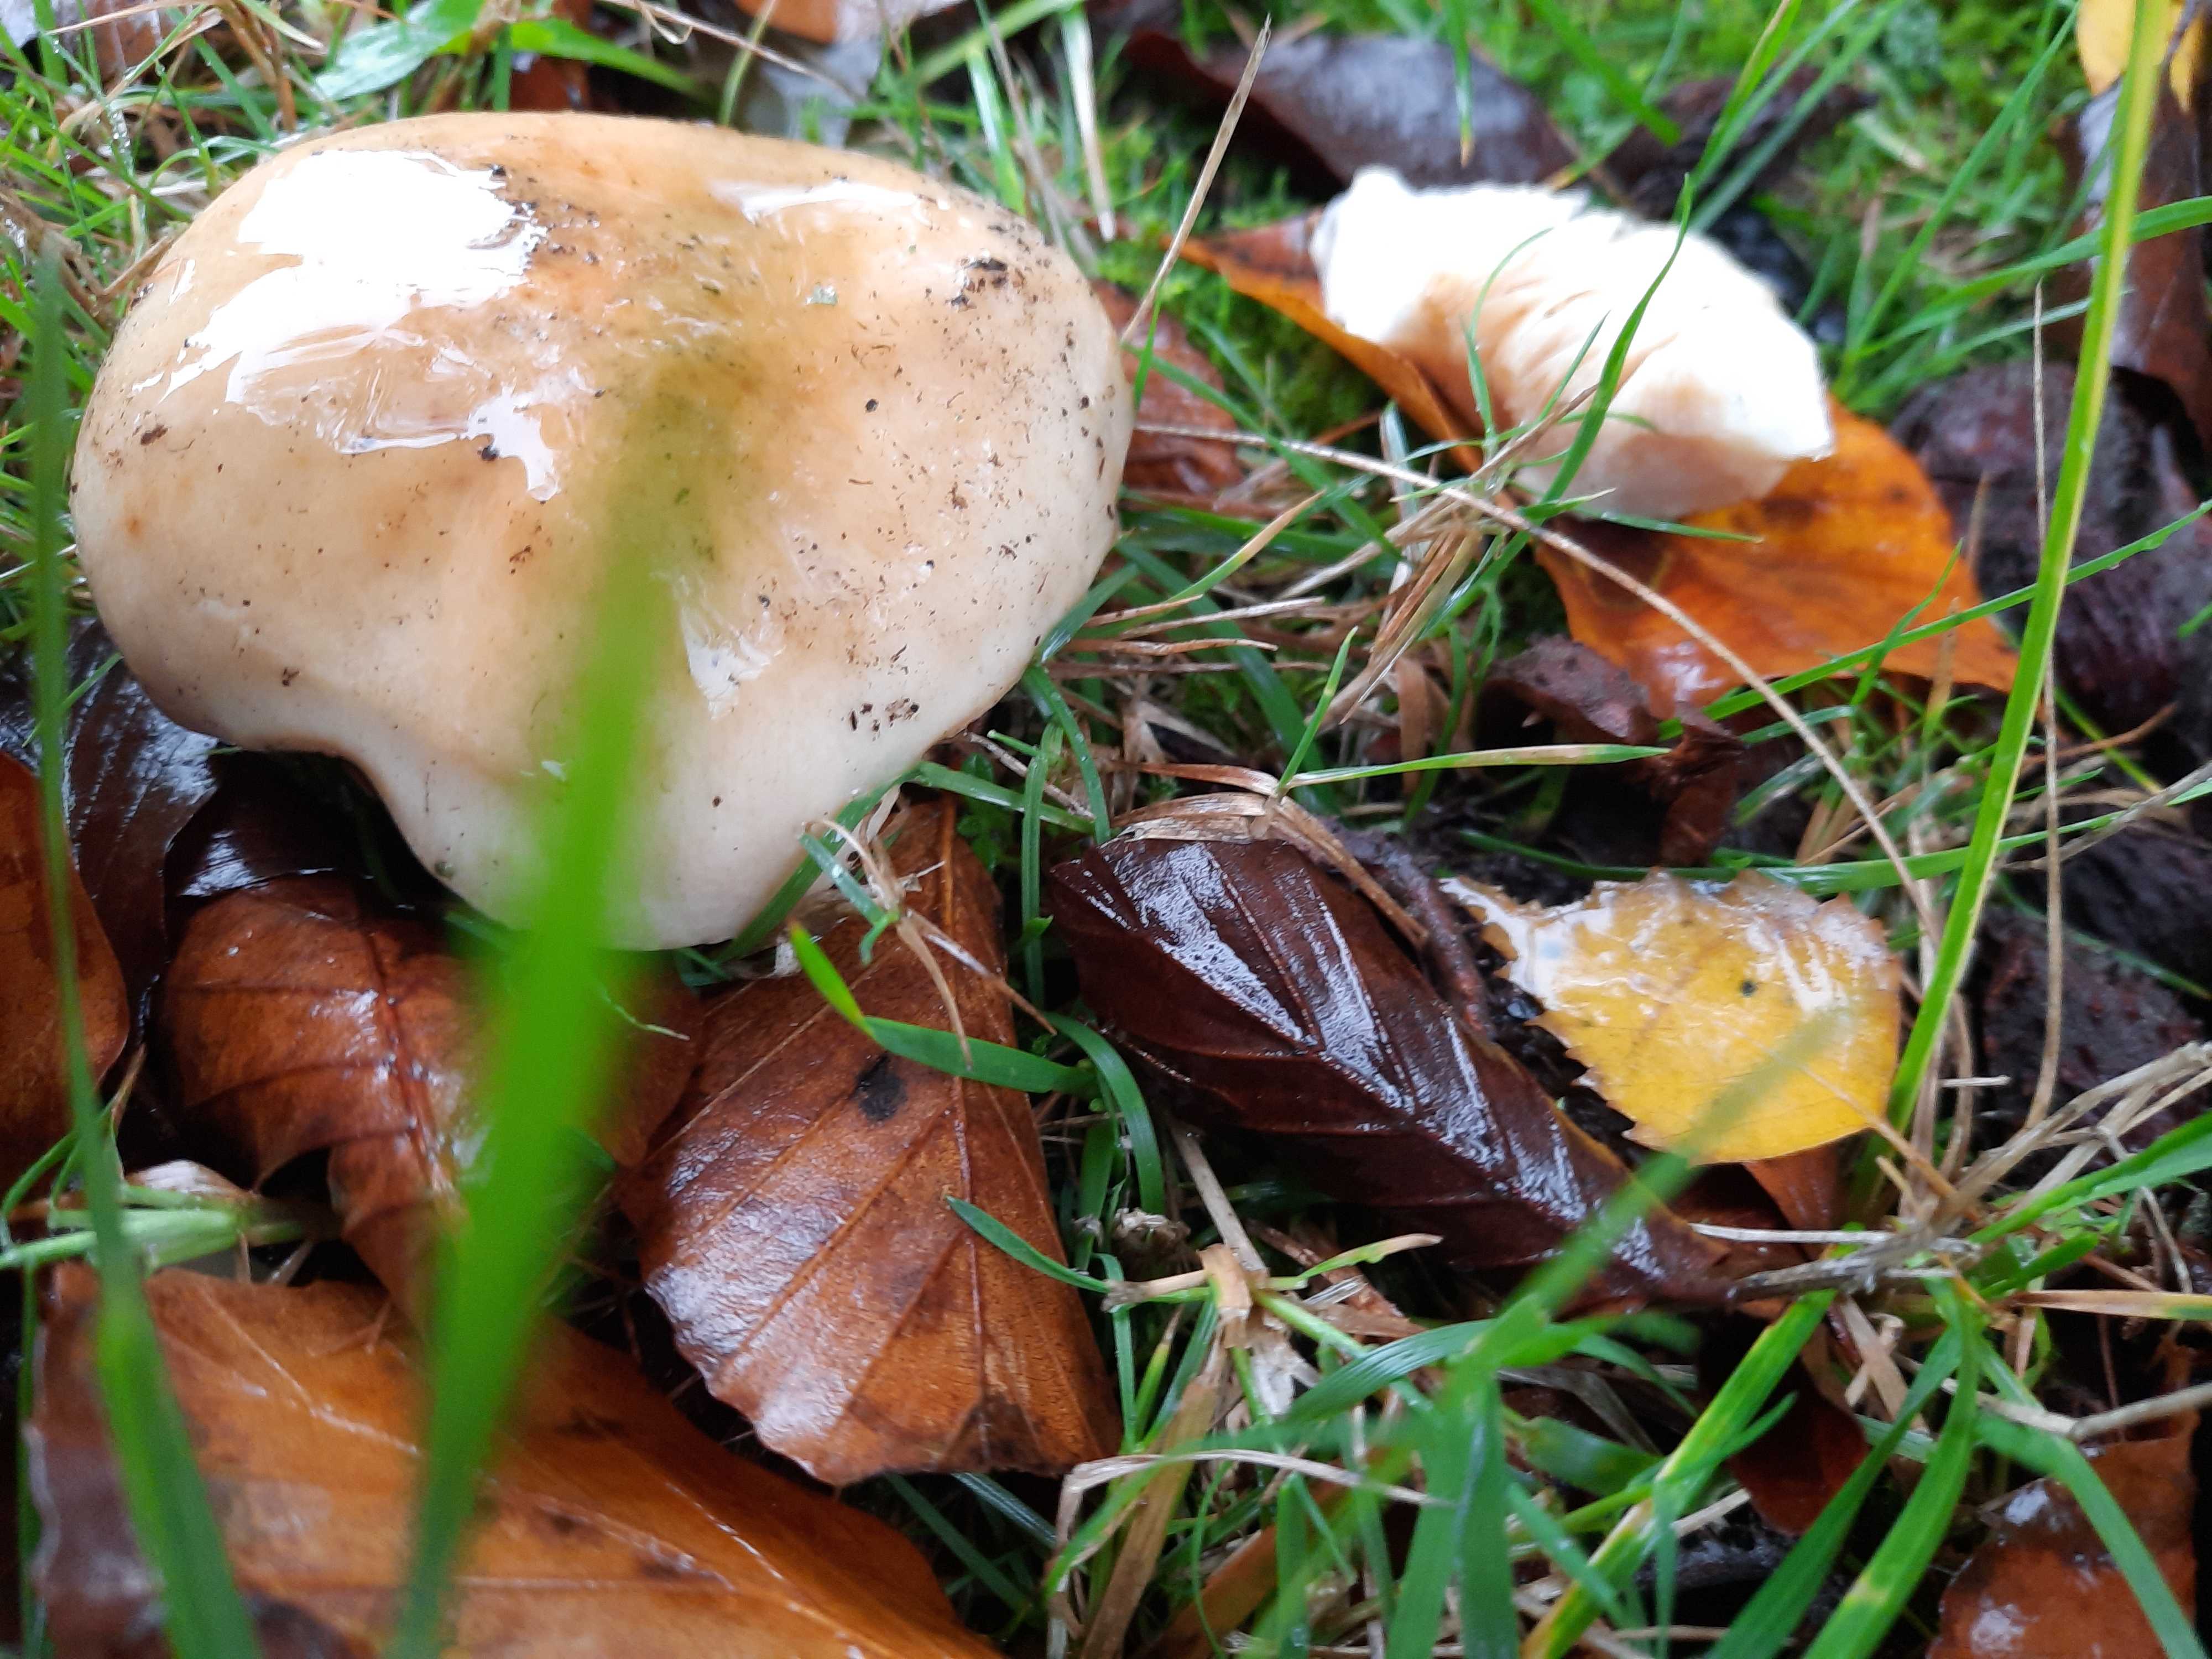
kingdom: Fungi
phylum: Basidiomycota
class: Agaricomycetes
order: Russulales
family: Russulaceae
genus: Russula
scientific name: Russula fellea
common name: galde-skørhat
